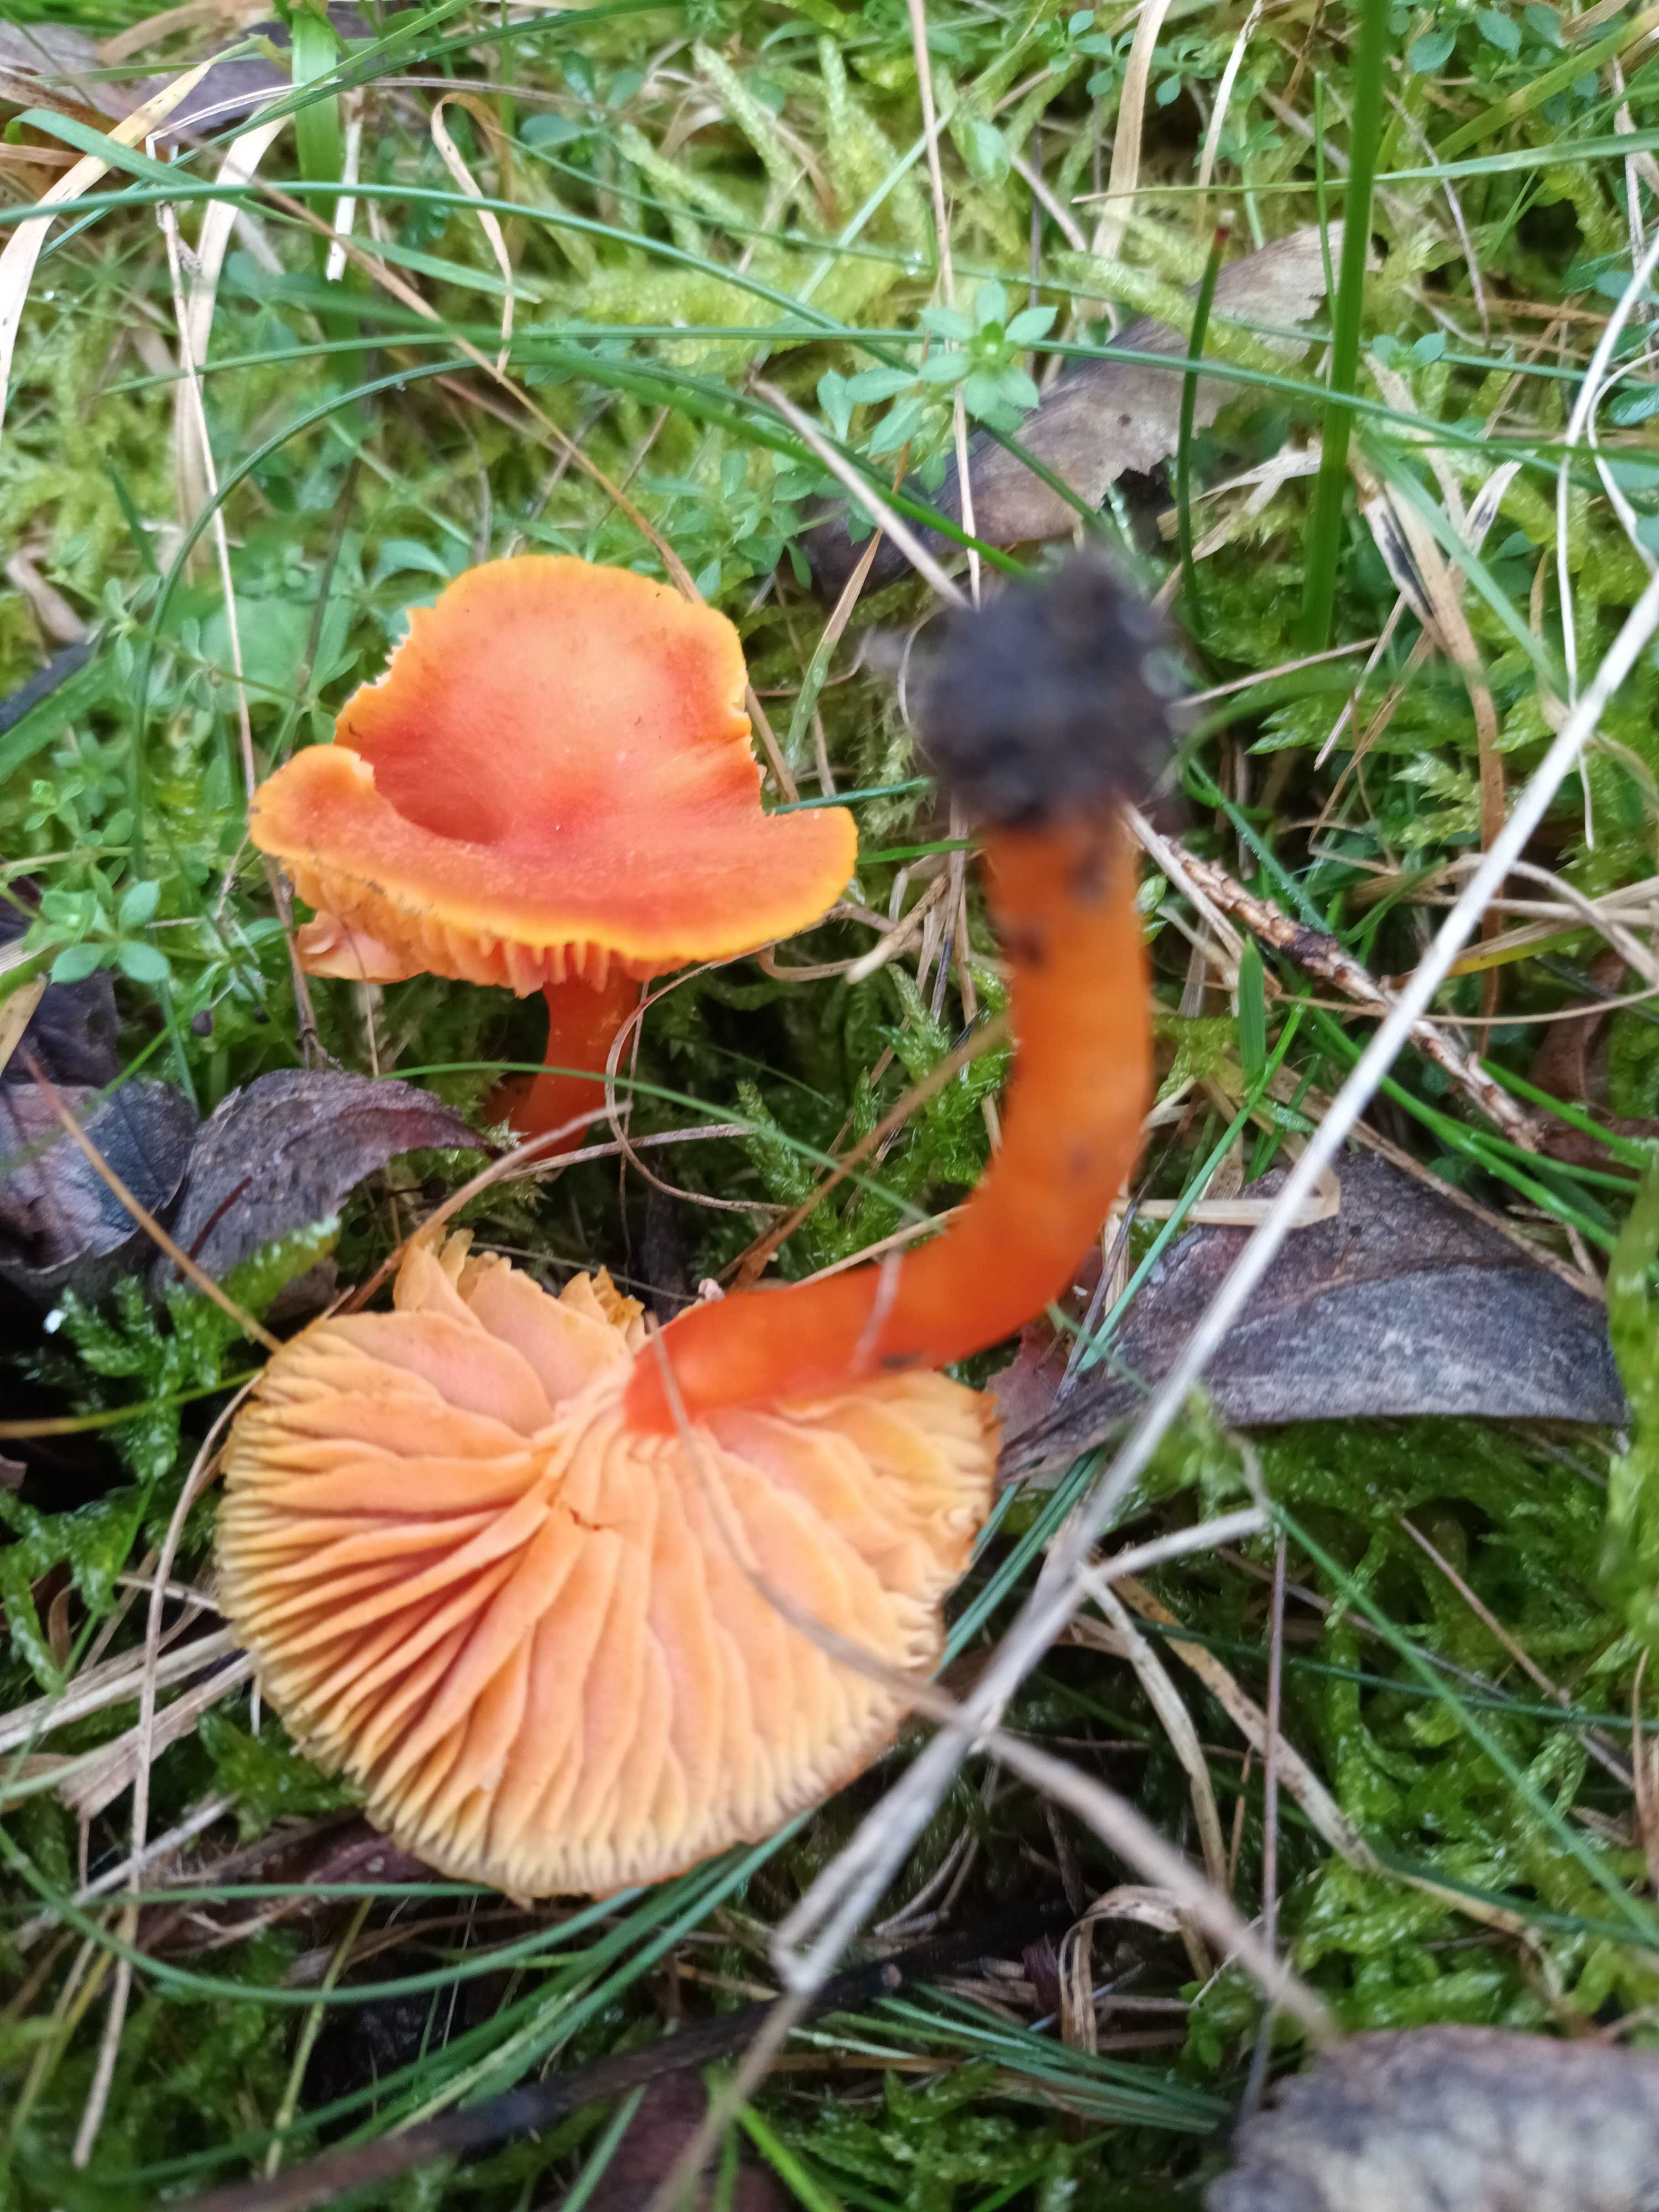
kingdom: Fungi
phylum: Basidiomycota
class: Agaricomycetes
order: Agaricales
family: Hygrophoraceae
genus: Hygrocybe
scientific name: Hygrocybe miniata
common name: mønje-vokshat
